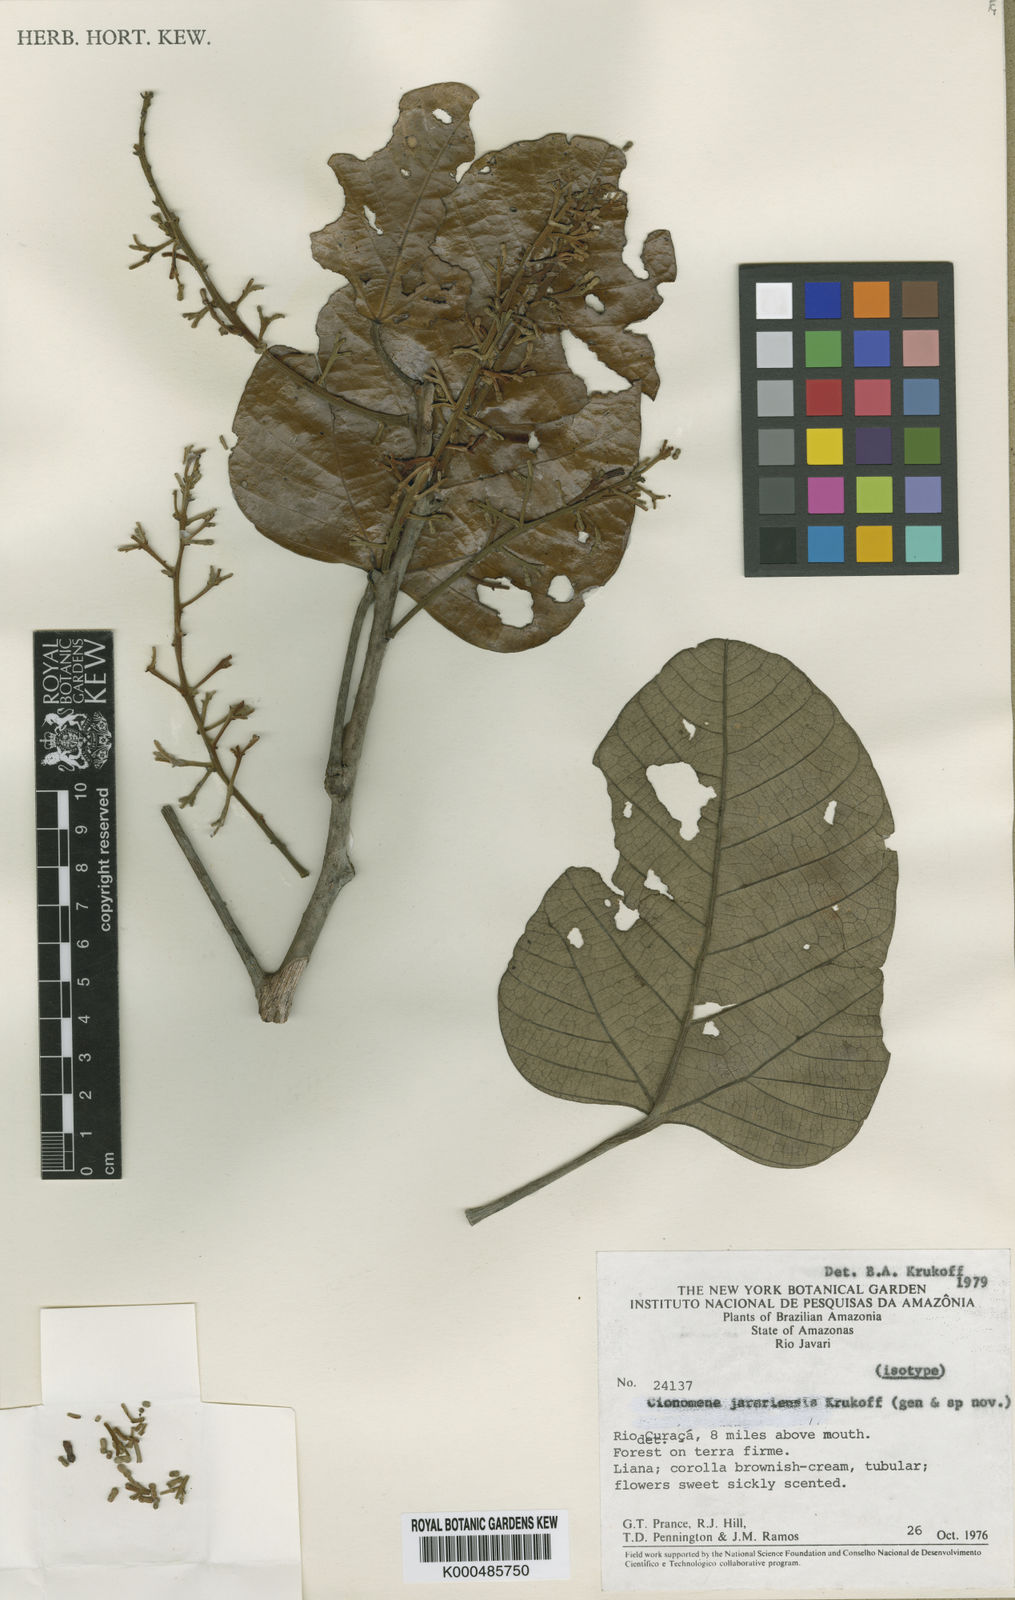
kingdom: Plantae
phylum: Tracheophyta
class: Magnoliopsida
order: Ranunculales
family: Menispermaceae
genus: Elephantomene
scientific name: Elephantomene eburnea
